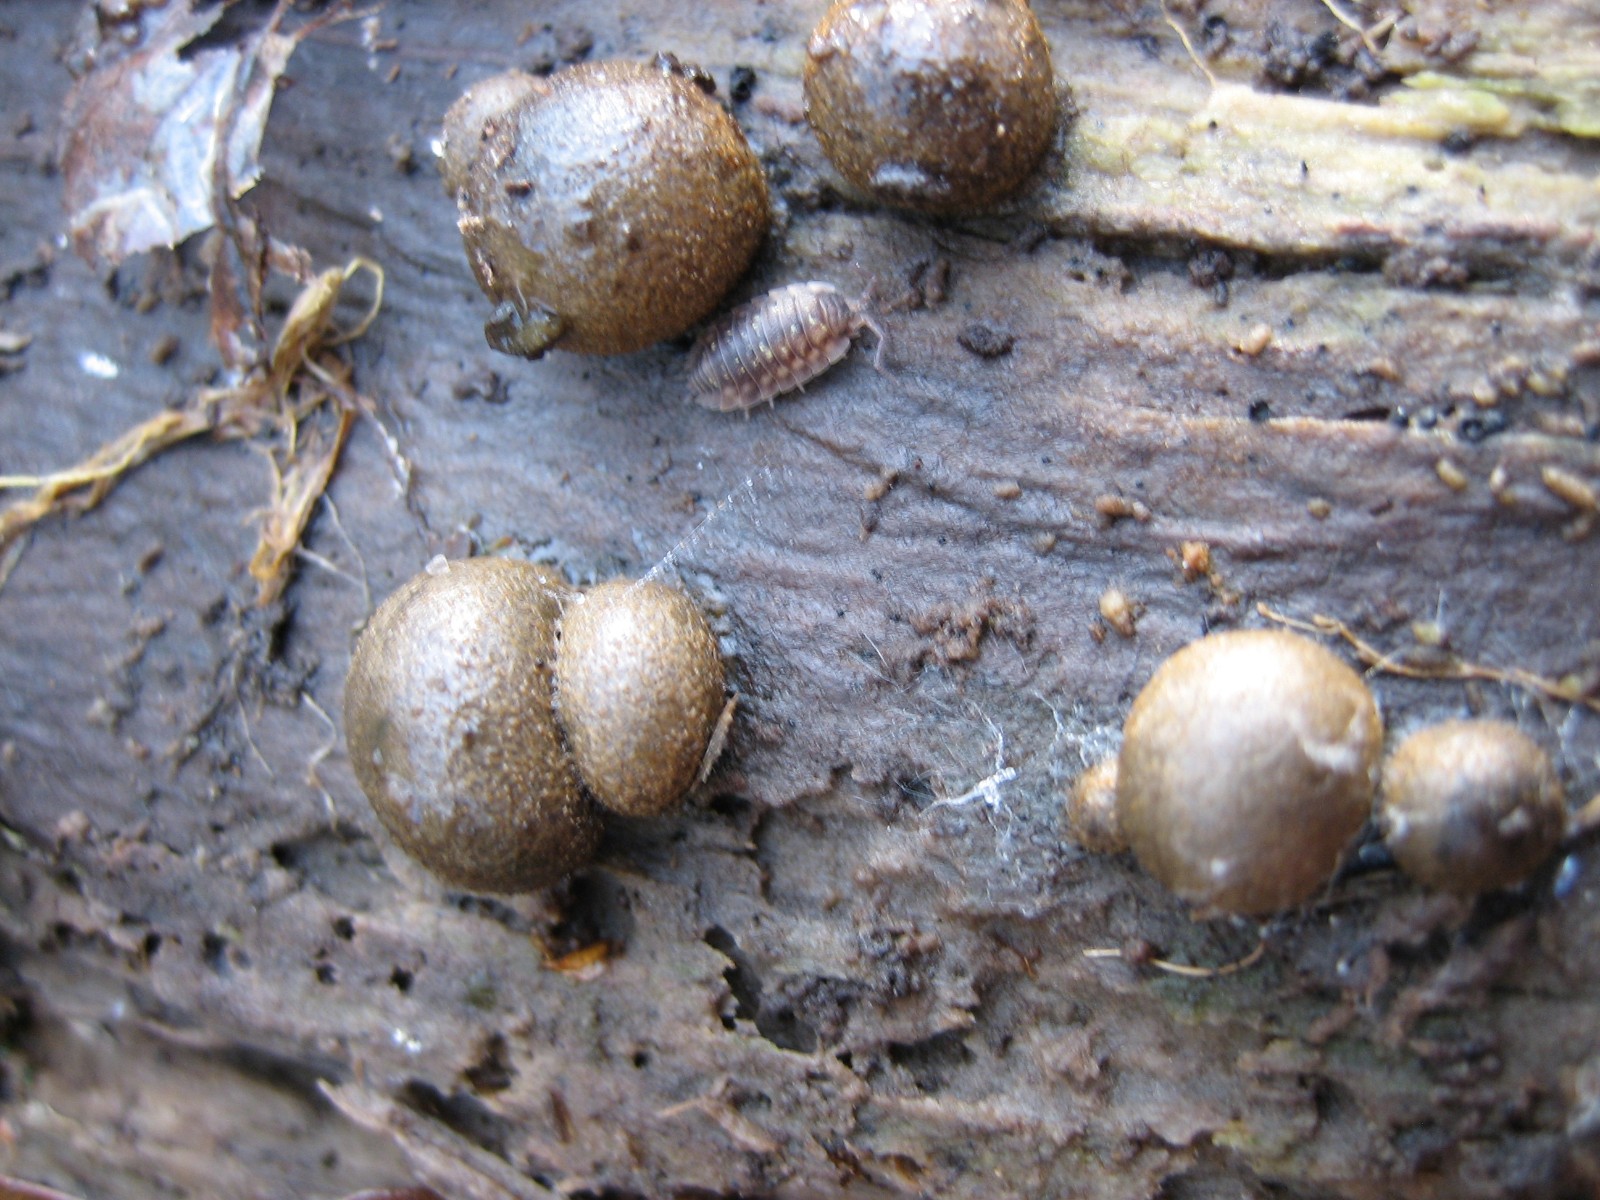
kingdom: Protozoa
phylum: Mycetozoa
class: Myxomycetes
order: Cribrariales
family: Tubiferaceae
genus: Lycogala
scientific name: Lycogala epidendrum
